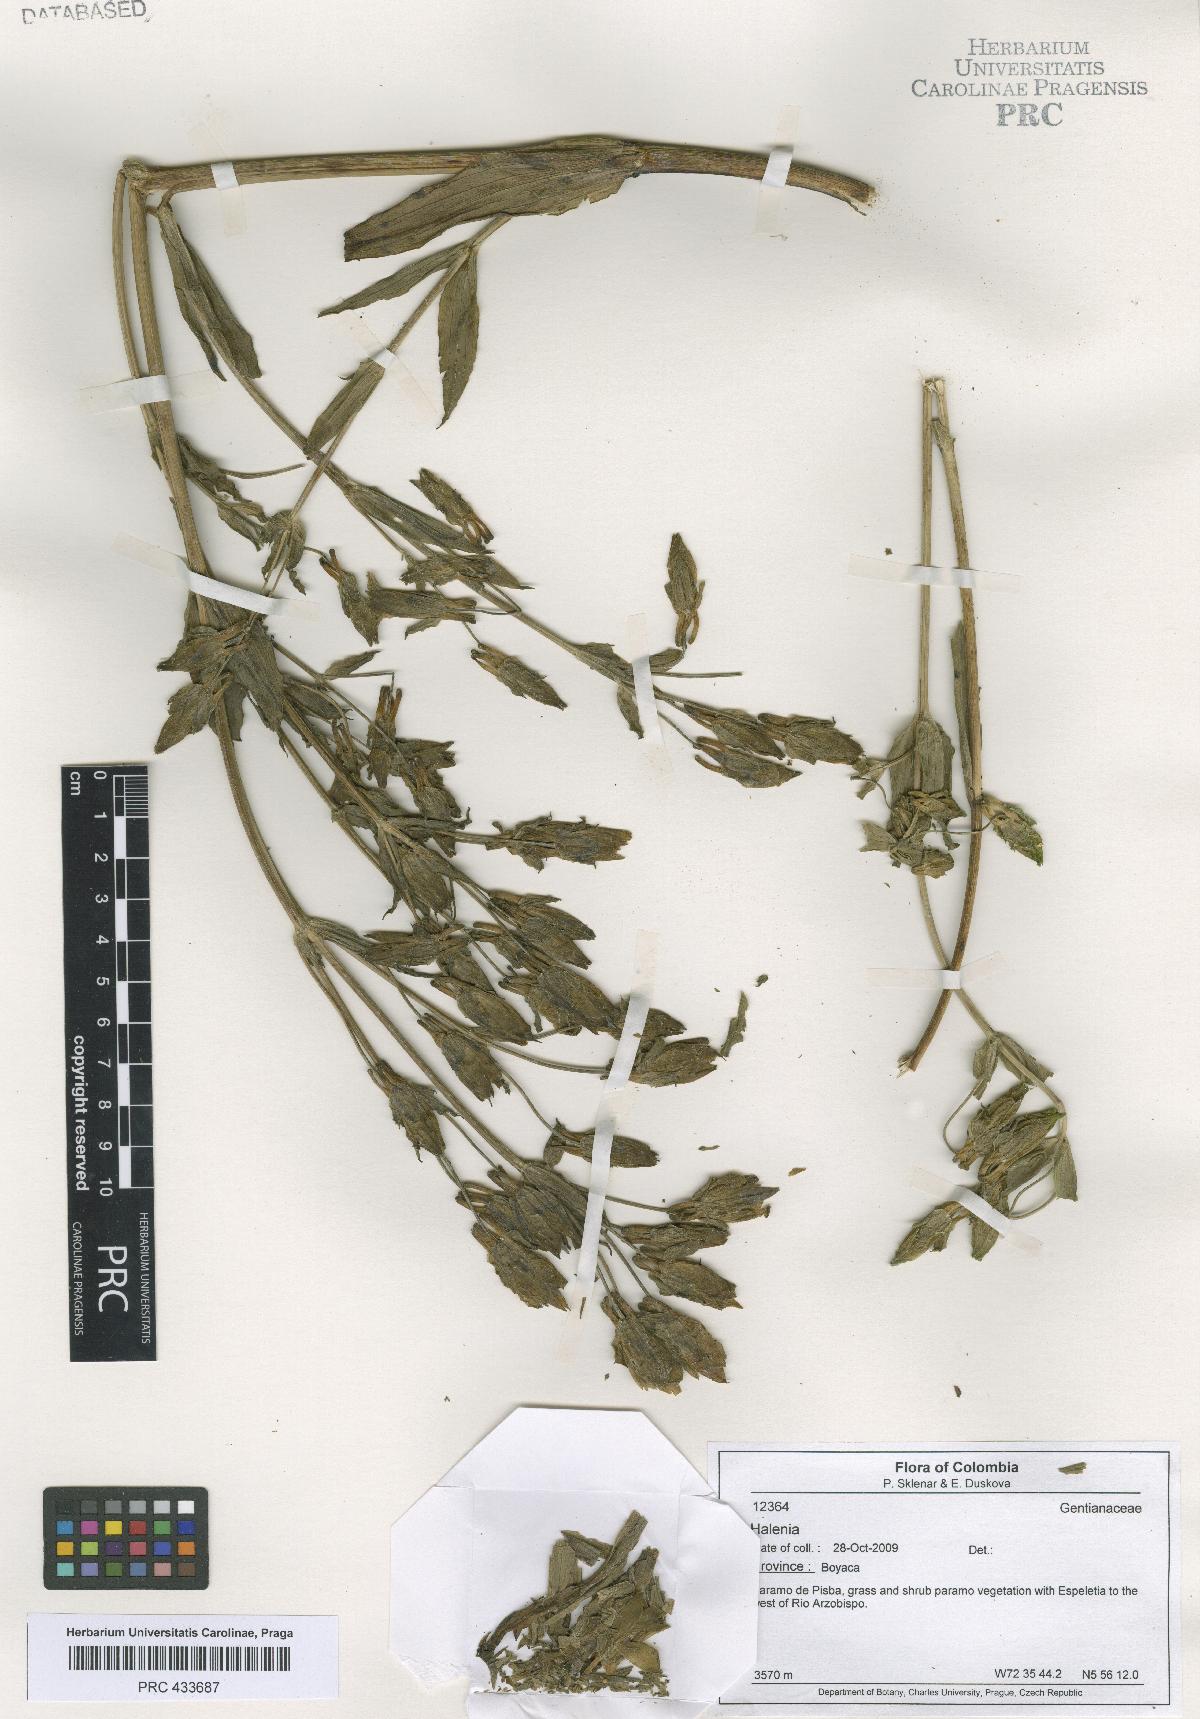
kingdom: Plantae
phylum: Tracheophyta
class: Magnoliopsida
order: Gentianales
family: Gentianaceae
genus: Halenia
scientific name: Halenia
